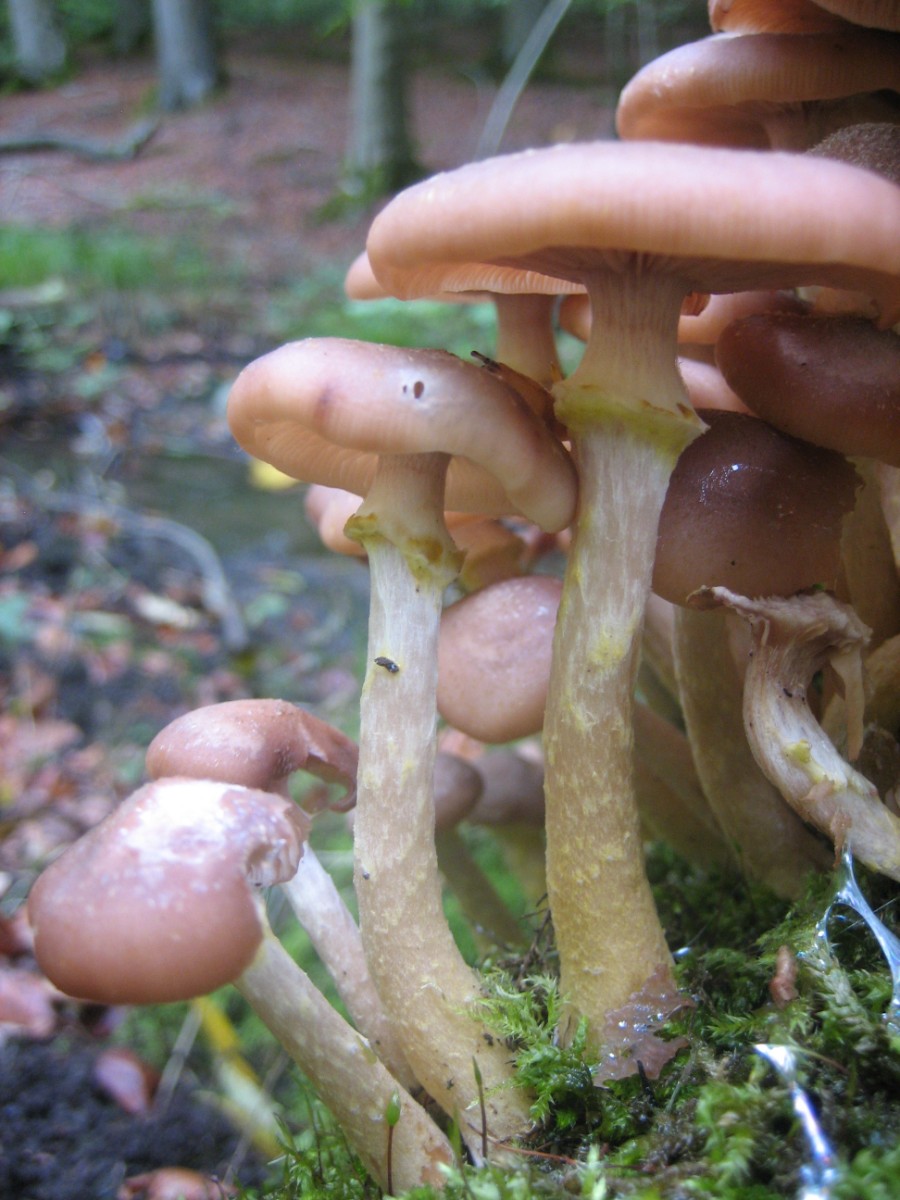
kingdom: Fungi
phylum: Basidiomycota
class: Agaricomycetes
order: Agaricales
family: Physalacriaceae
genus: Armillaria
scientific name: Armillaria lutea
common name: køllestokket honningsvamp
